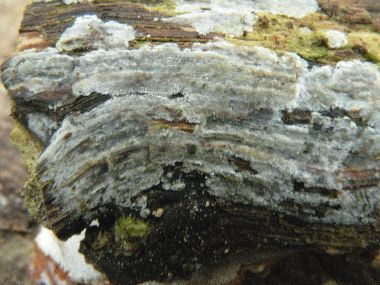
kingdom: Fungi
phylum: Basidiomycota
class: Agaricomycetes
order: Agaricales
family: Radulomycetaceae
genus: Radulomyces
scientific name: Radulomyces confluens
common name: glat naftalinskind
